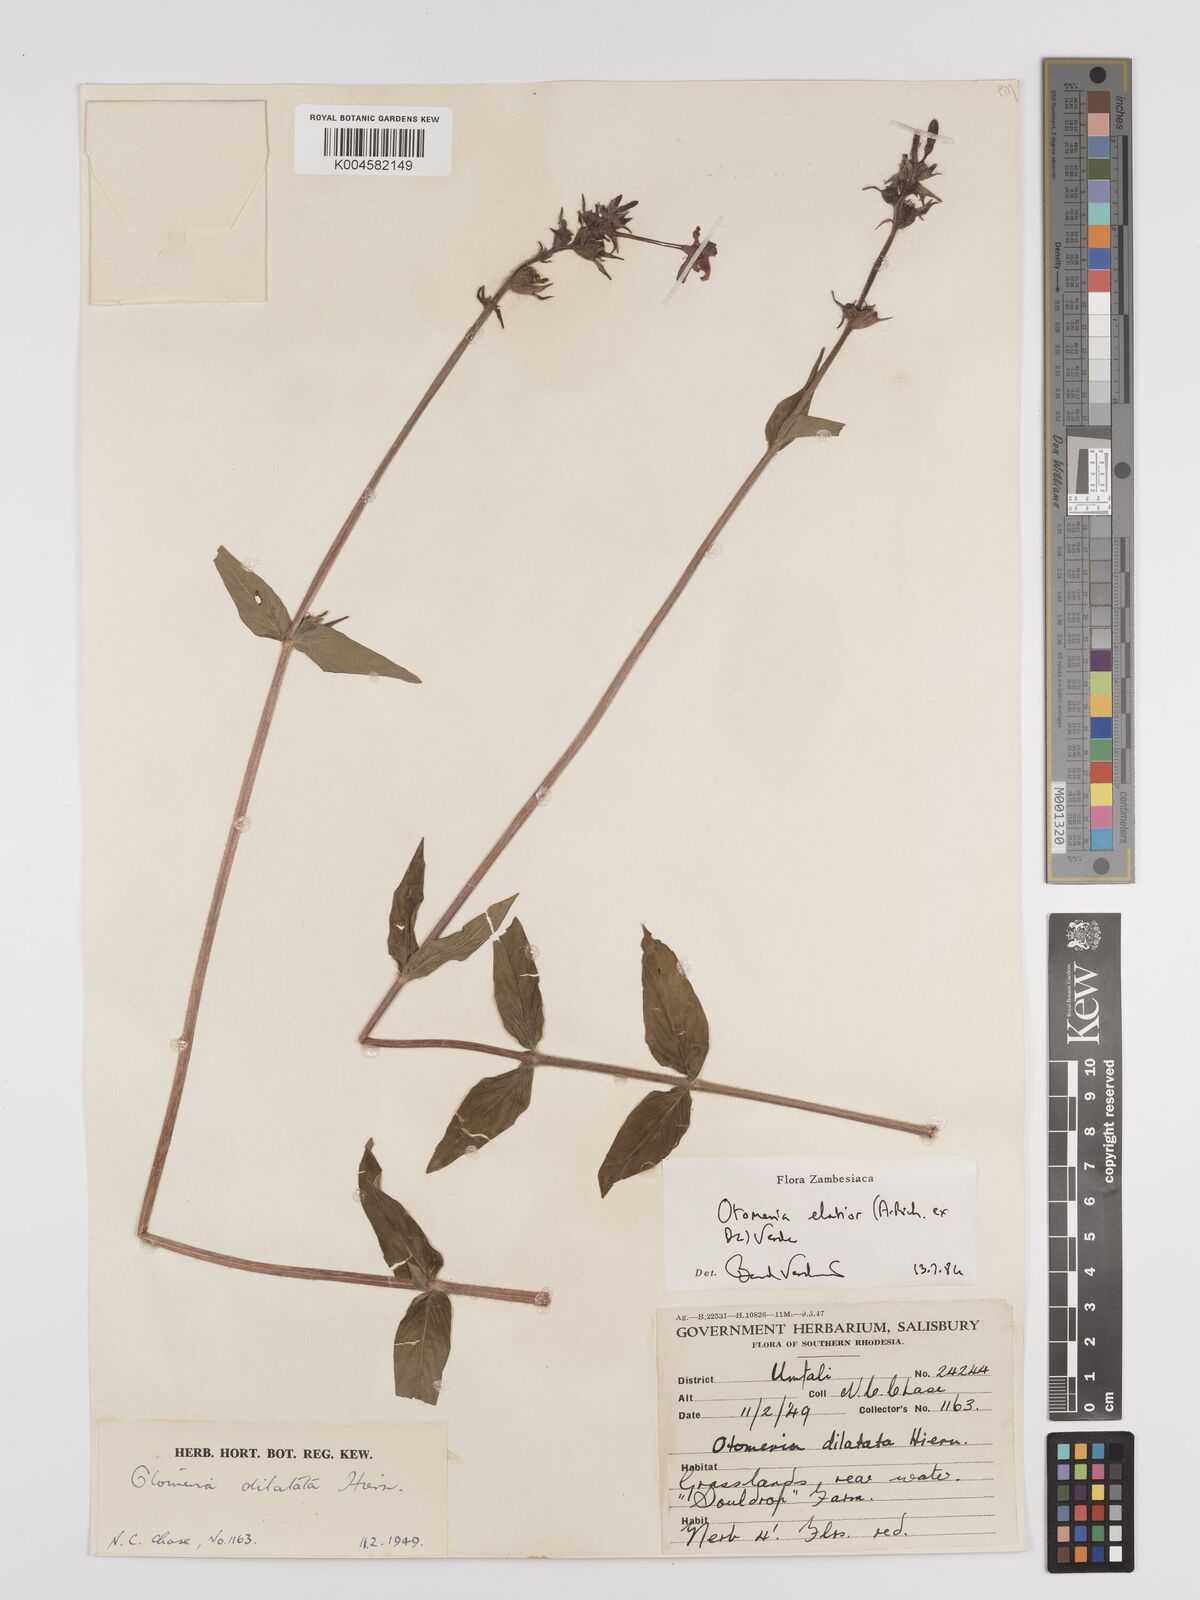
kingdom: Plantae
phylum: Tracheophyta
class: Magnoliopsida
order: Gentianales
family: Rubiaceae
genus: Otomeria
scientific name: Otomeria elatior
